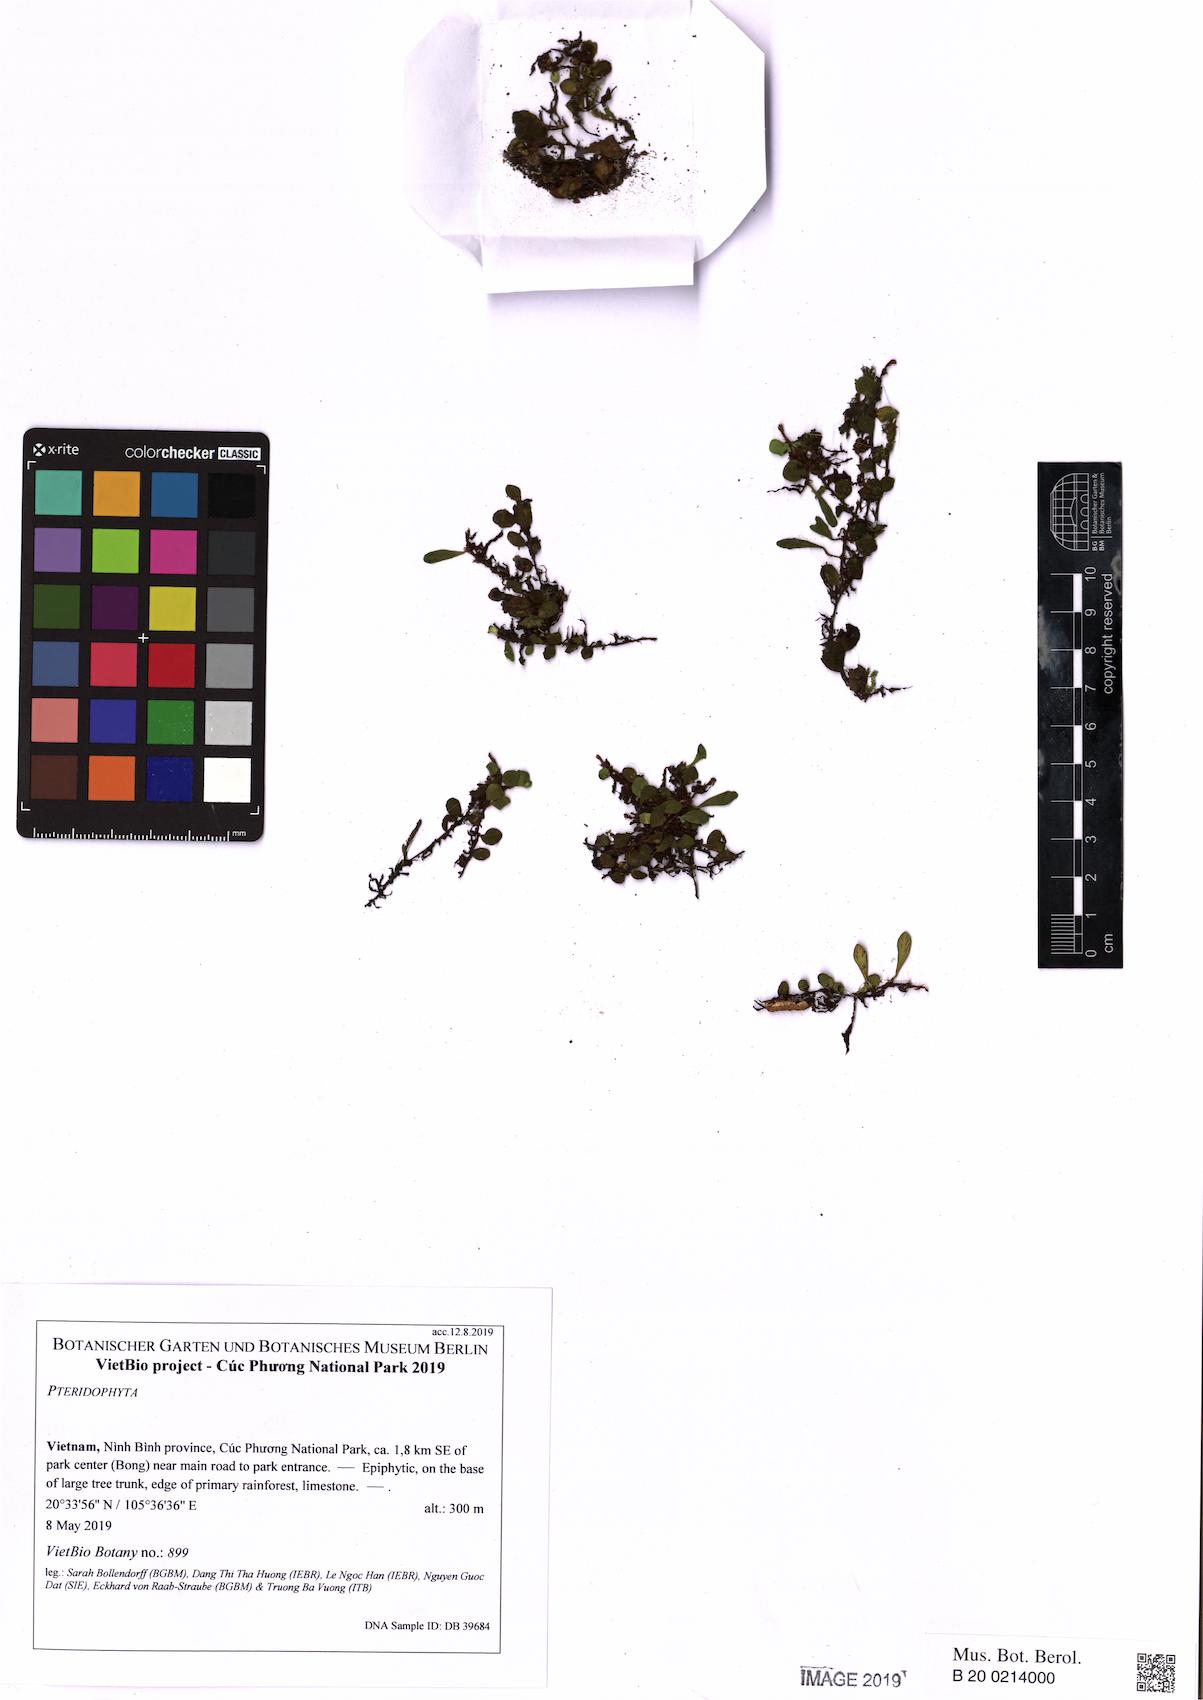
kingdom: Plantae
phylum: Tracheophyta
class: Polypodiopsida
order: Polypodiales
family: Polypodiaceae
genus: Loxogramme
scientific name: Loxogramme acroscopa
